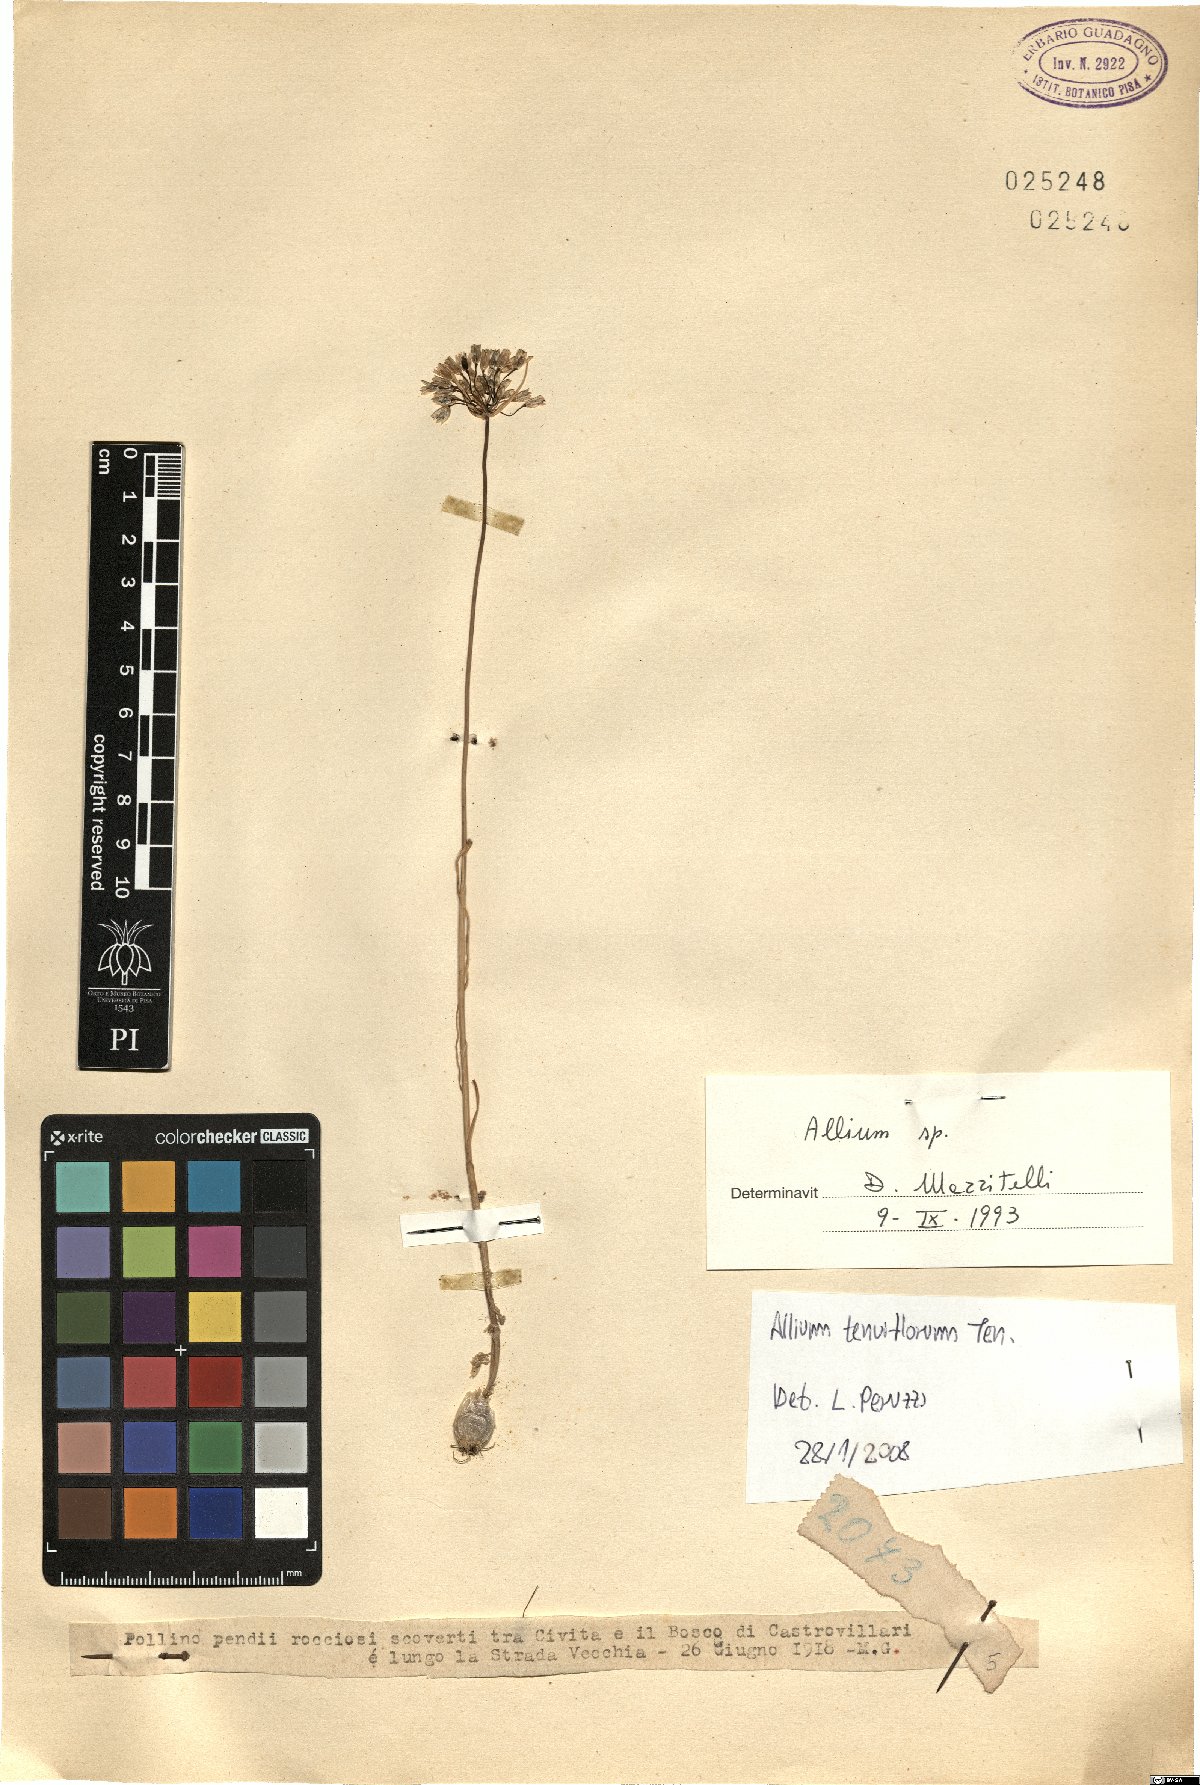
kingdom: Plantae
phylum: Tracheophyta
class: Liliopsida
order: Asparagales
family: Amaryllidaceae
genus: Allium
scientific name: Allium tenuiflorum
